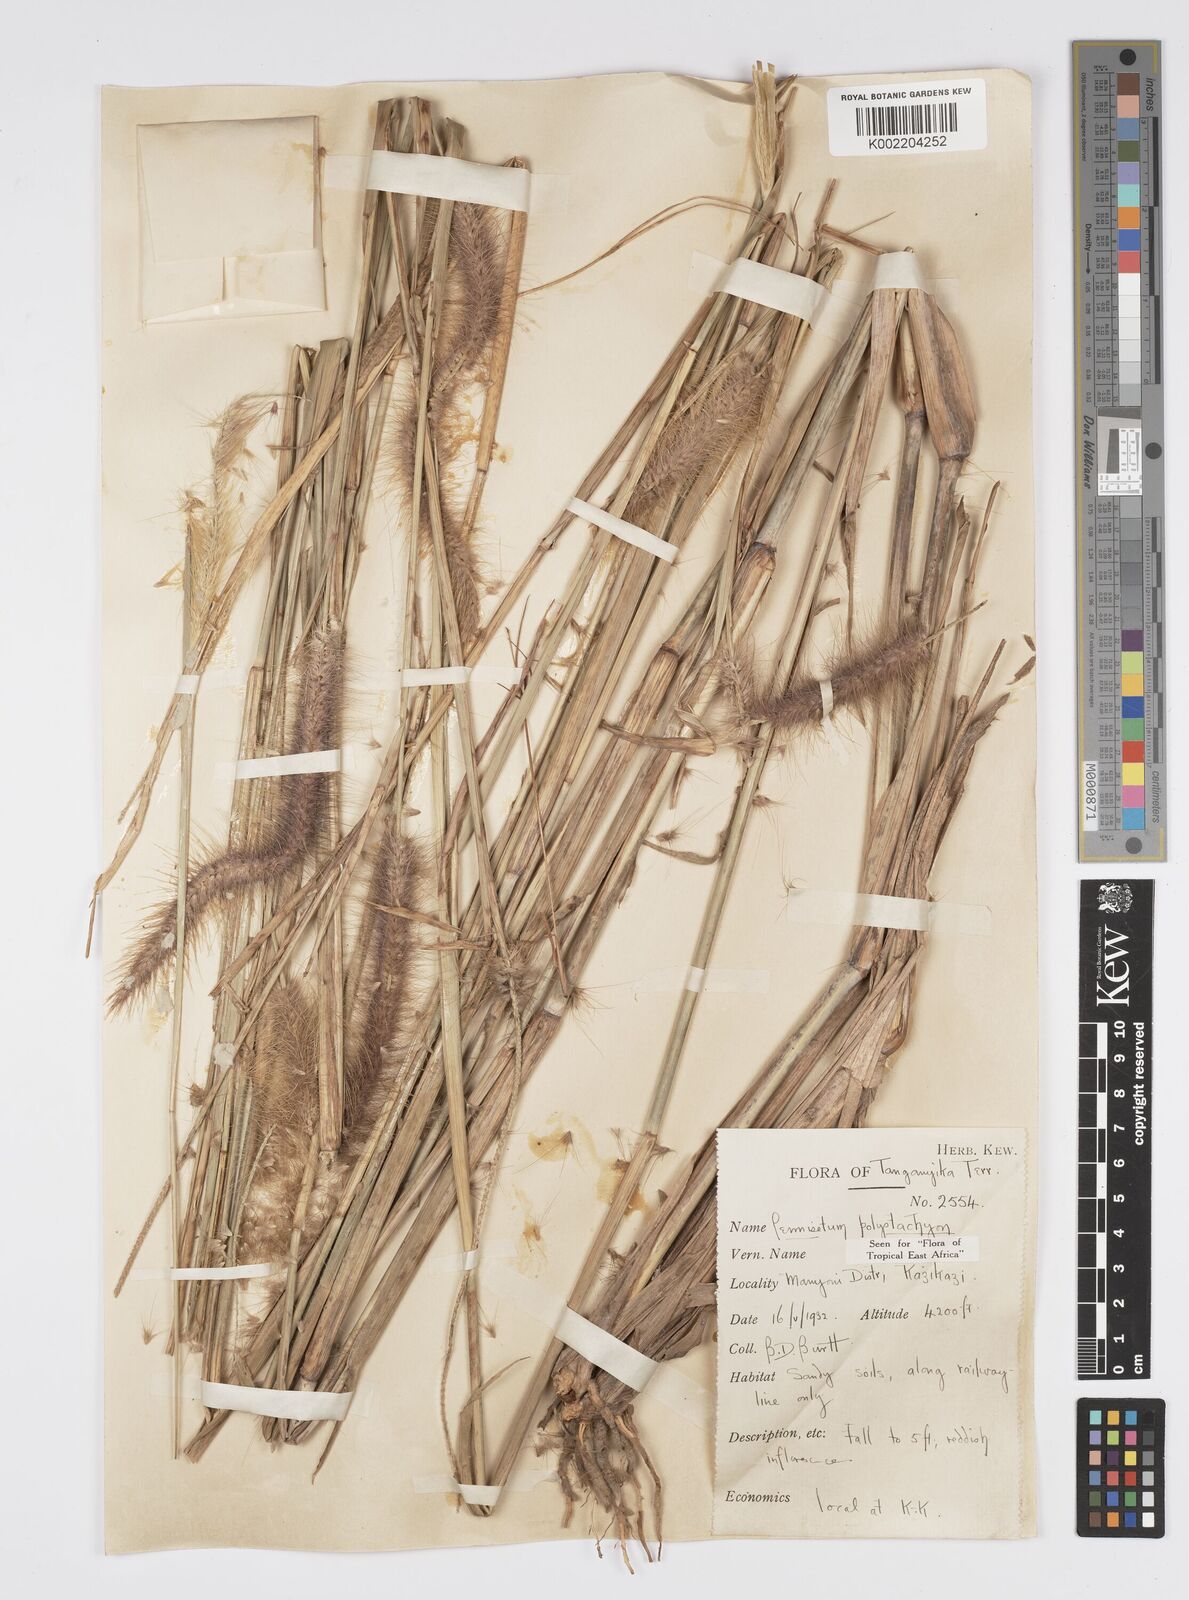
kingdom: Plantae
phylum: Tracheophyta
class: Liliopsida
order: Poales
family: Poaceae
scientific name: Poaceae
